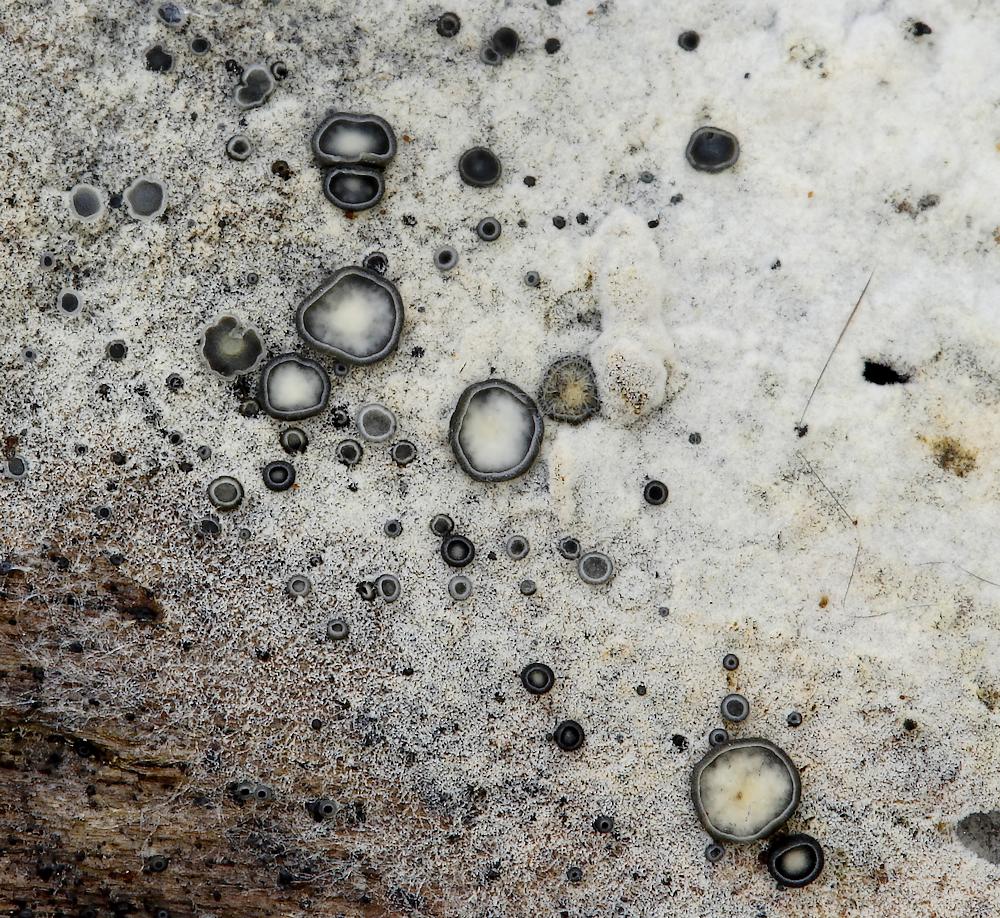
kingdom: Fungi
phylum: Ascomycota
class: Leotiomycetes
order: Helotiales
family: Mollisiaceae
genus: Mollisia
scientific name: Mollisia
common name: gråskive
